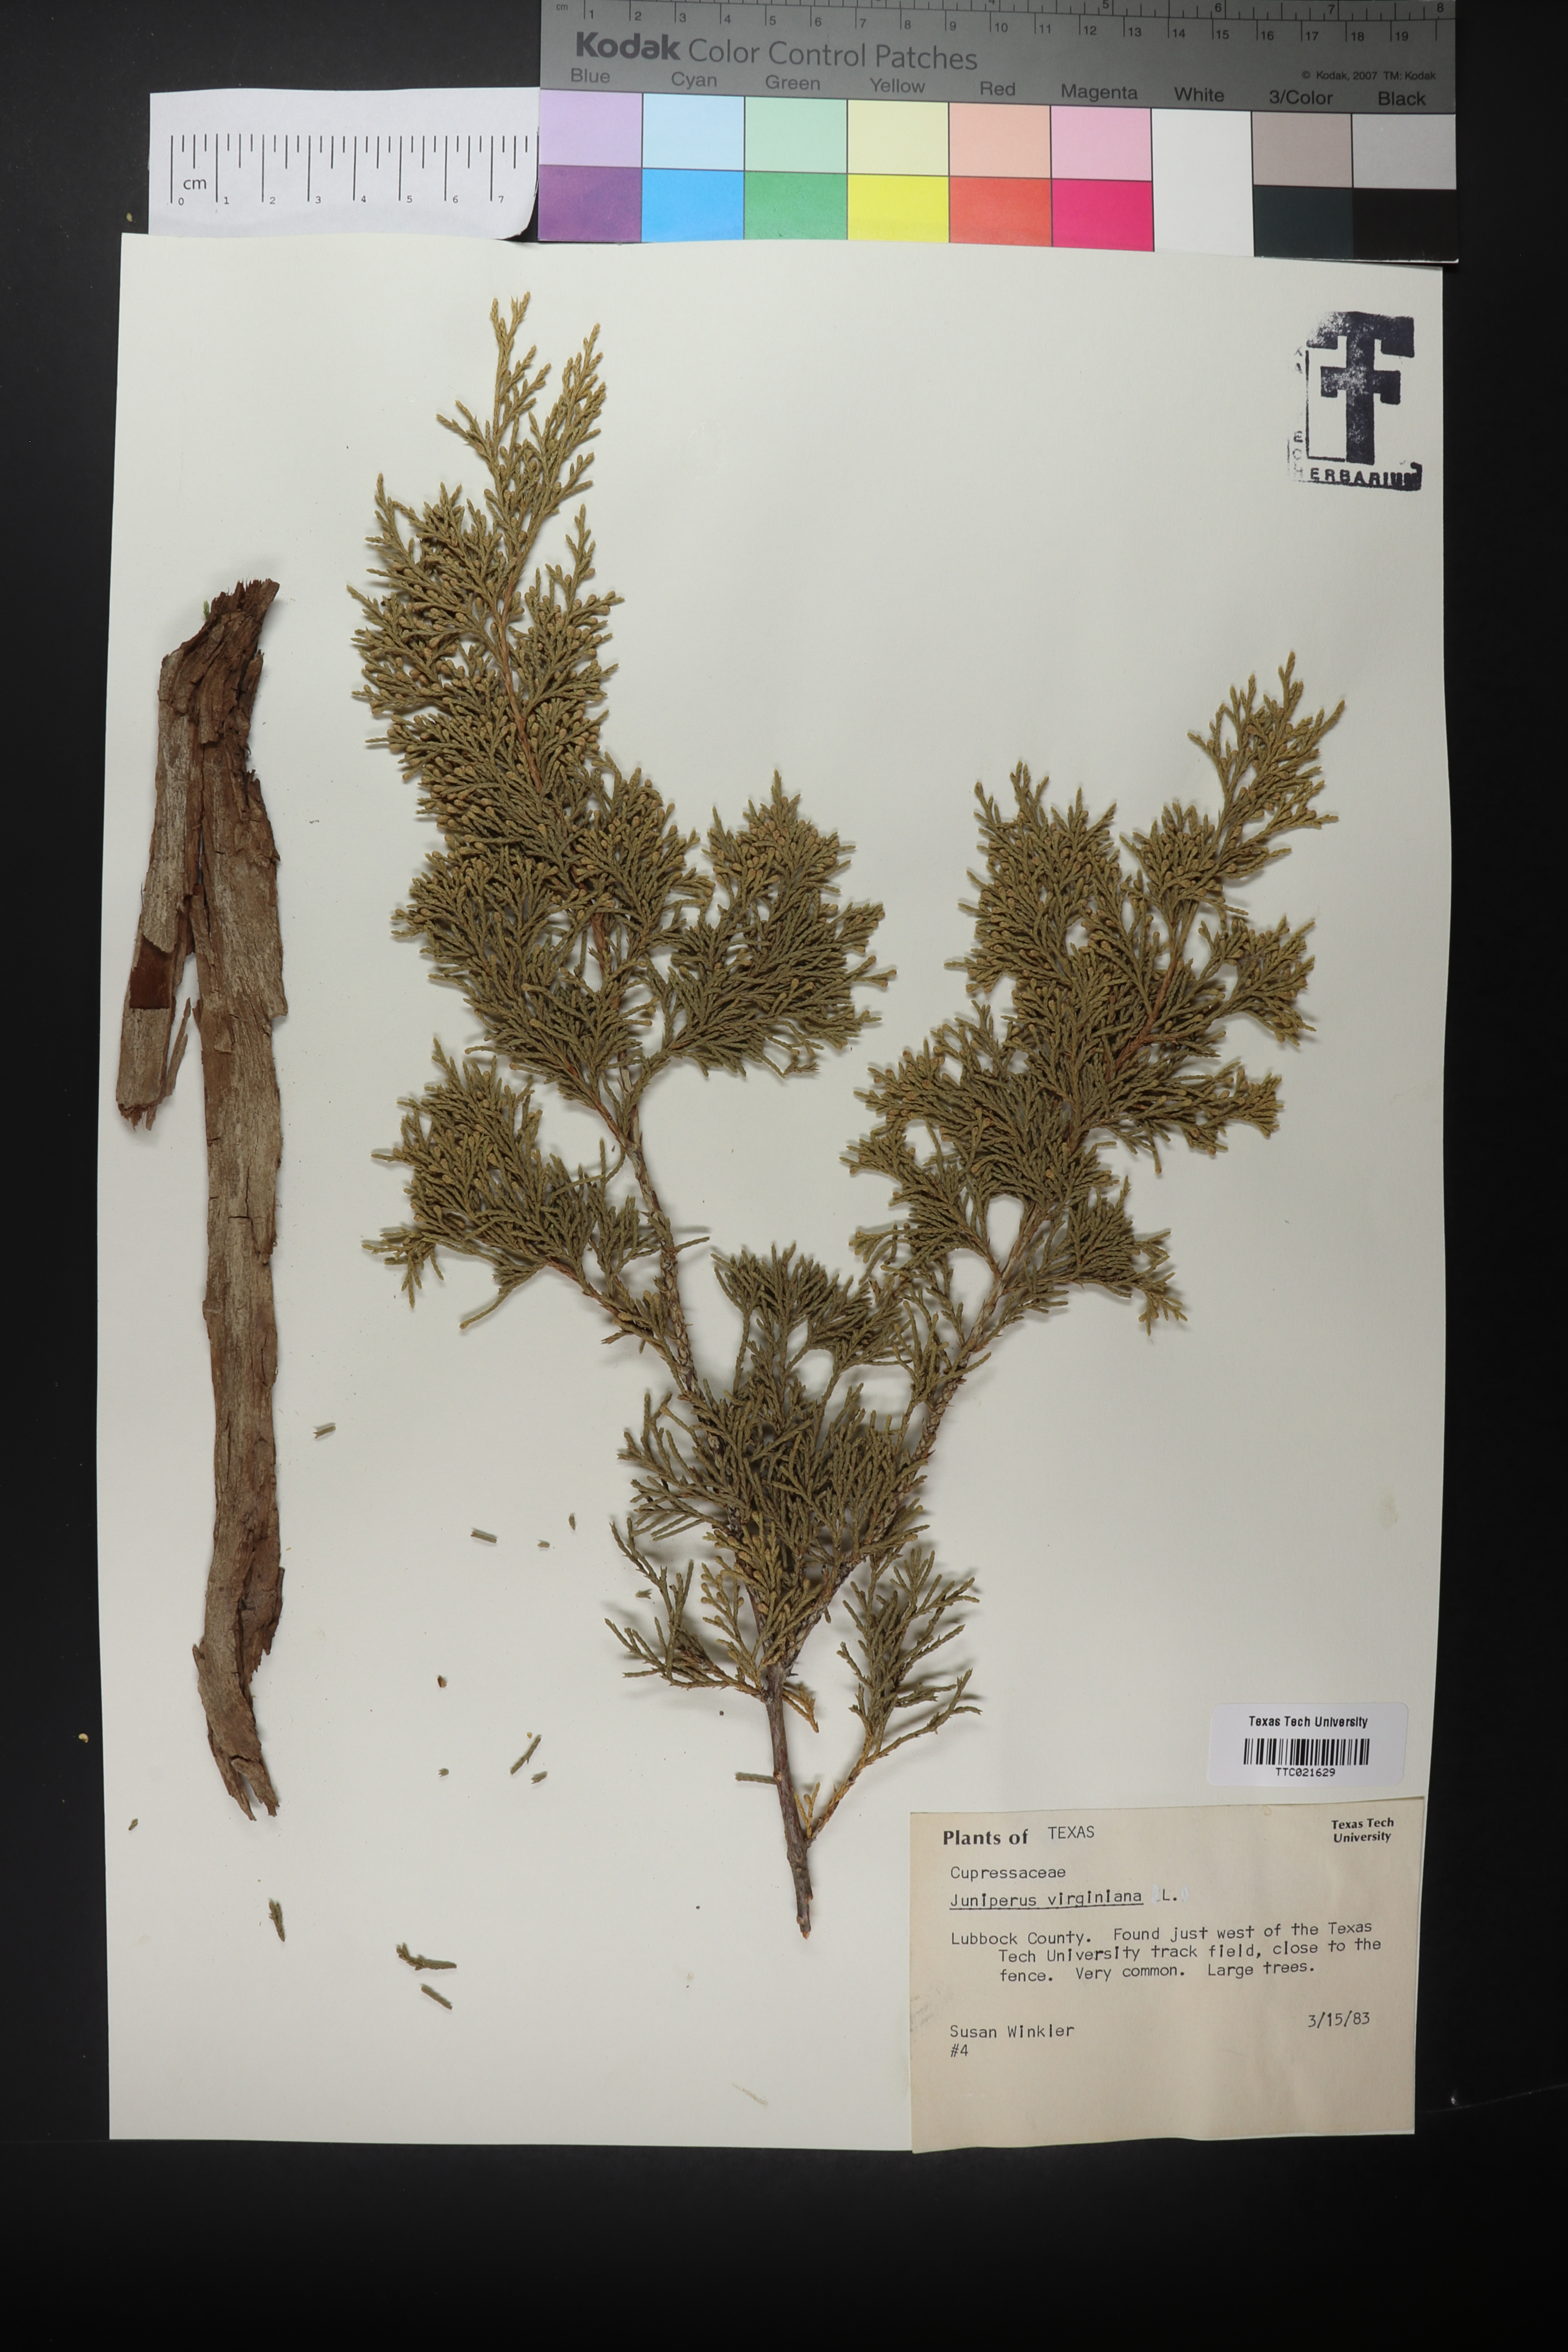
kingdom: Plantae
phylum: Tracheophyta
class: Pinopsida
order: Pinales
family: Cupressaceae
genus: Juniperus
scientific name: Juniperus virginiana
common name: Red juniper
